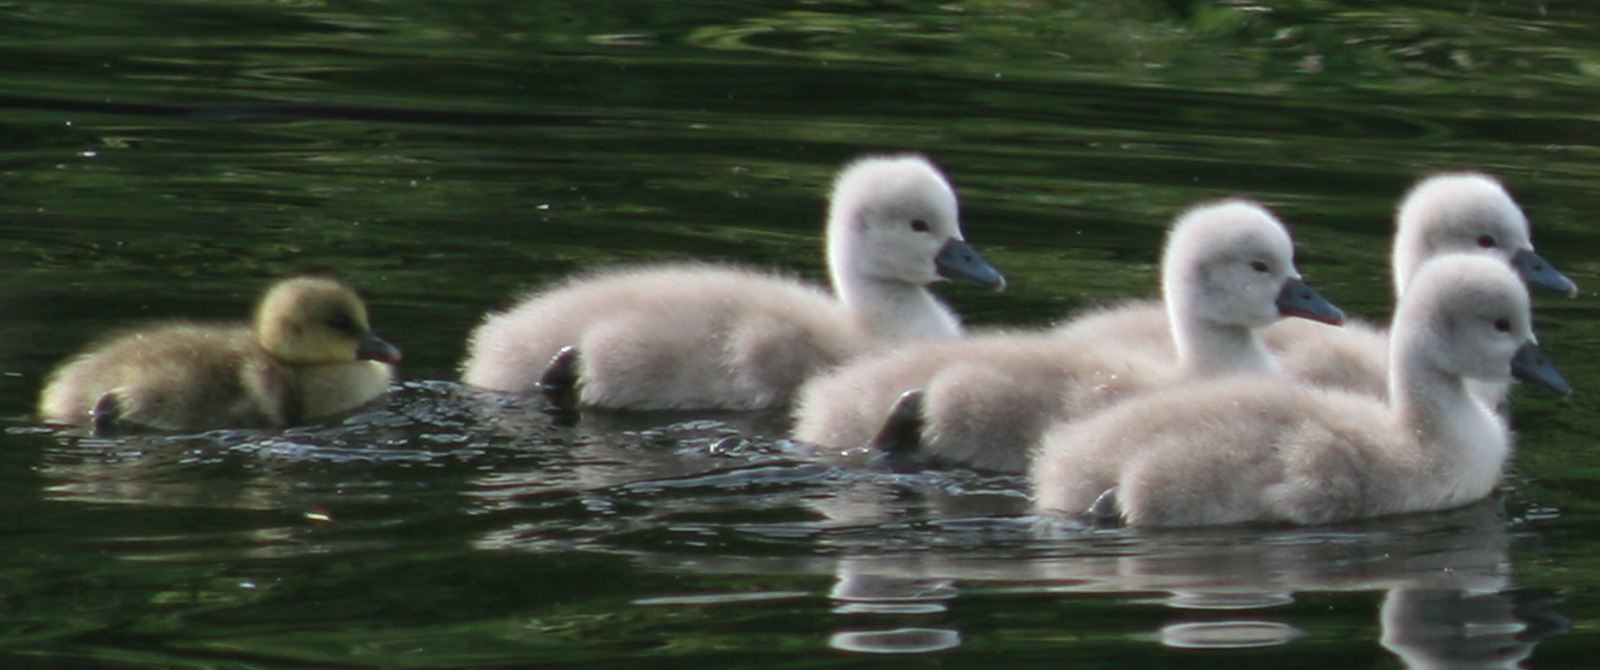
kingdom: Animalia
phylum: Chordata
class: Aves
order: Anseriformes
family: Anatidae
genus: Cygnus
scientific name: Cygnus olor
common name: Knopsvane
